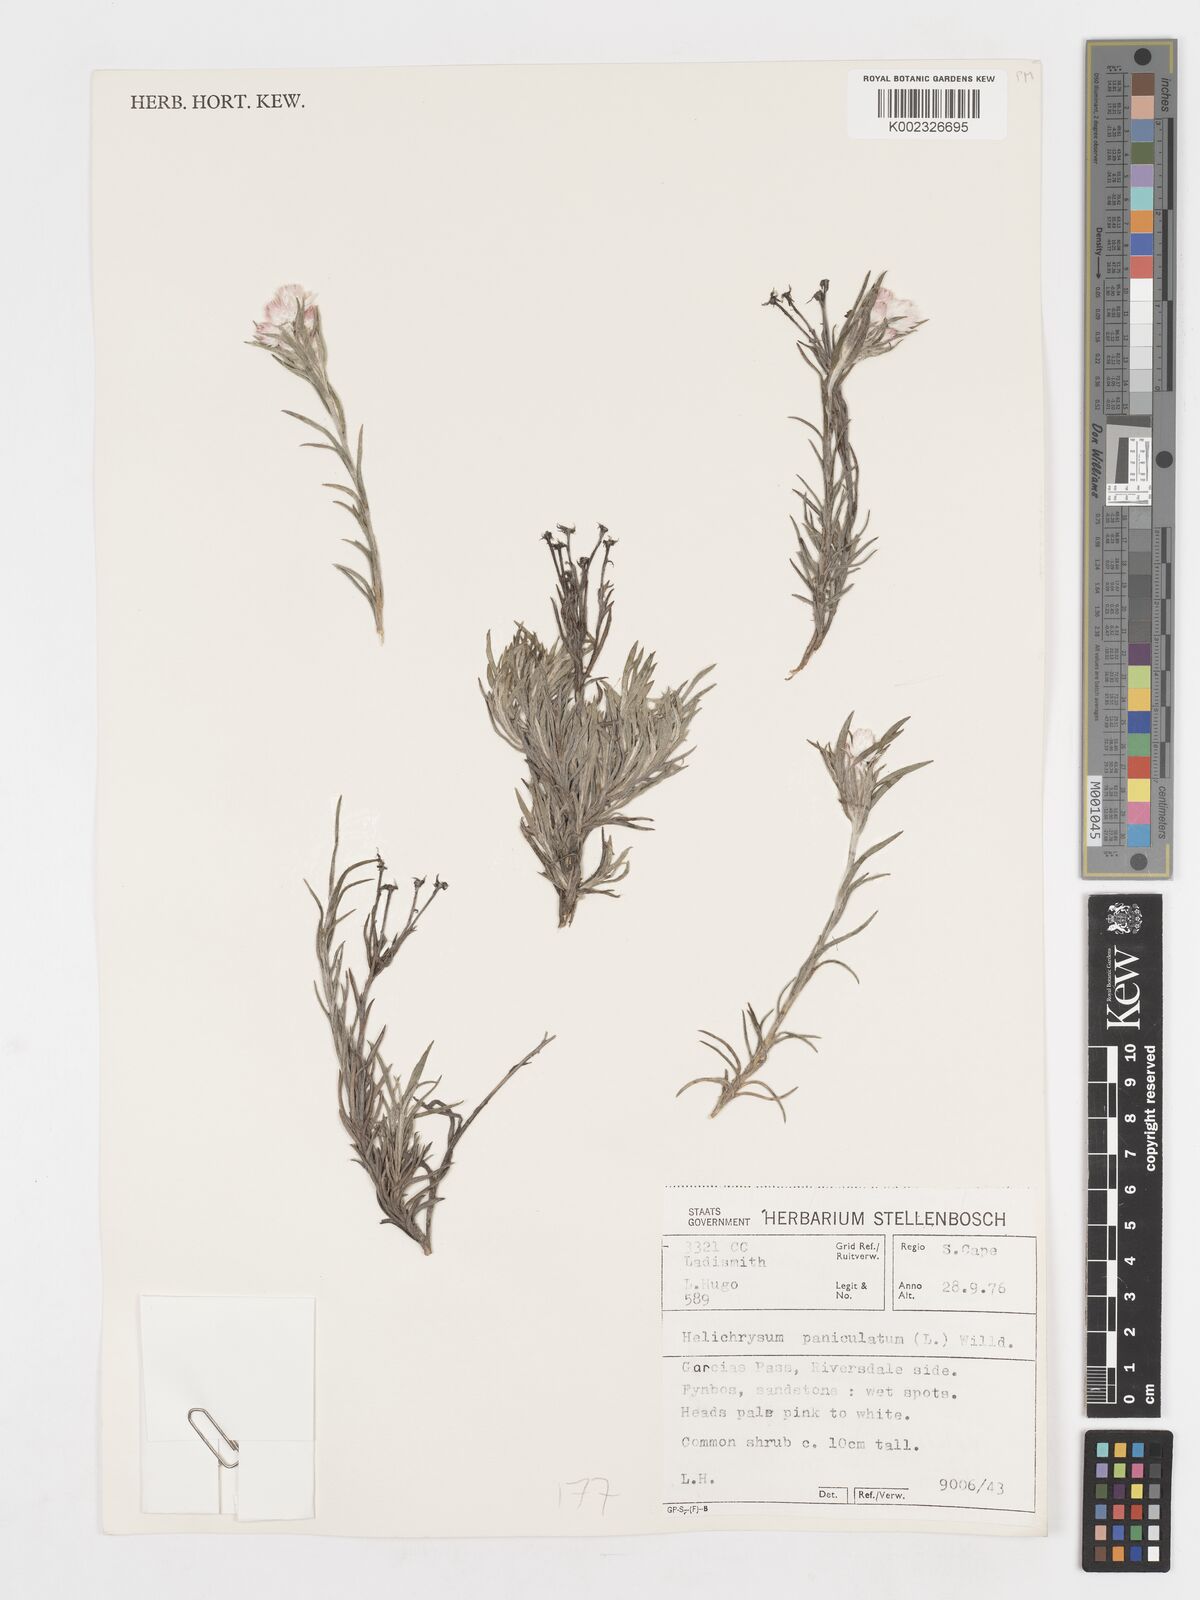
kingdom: Plantae
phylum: Tracheophyta
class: Magnoliopsida
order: Asterales
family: Asteraceae
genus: Achyranthemum
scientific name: Achyranthemum paniculatum
